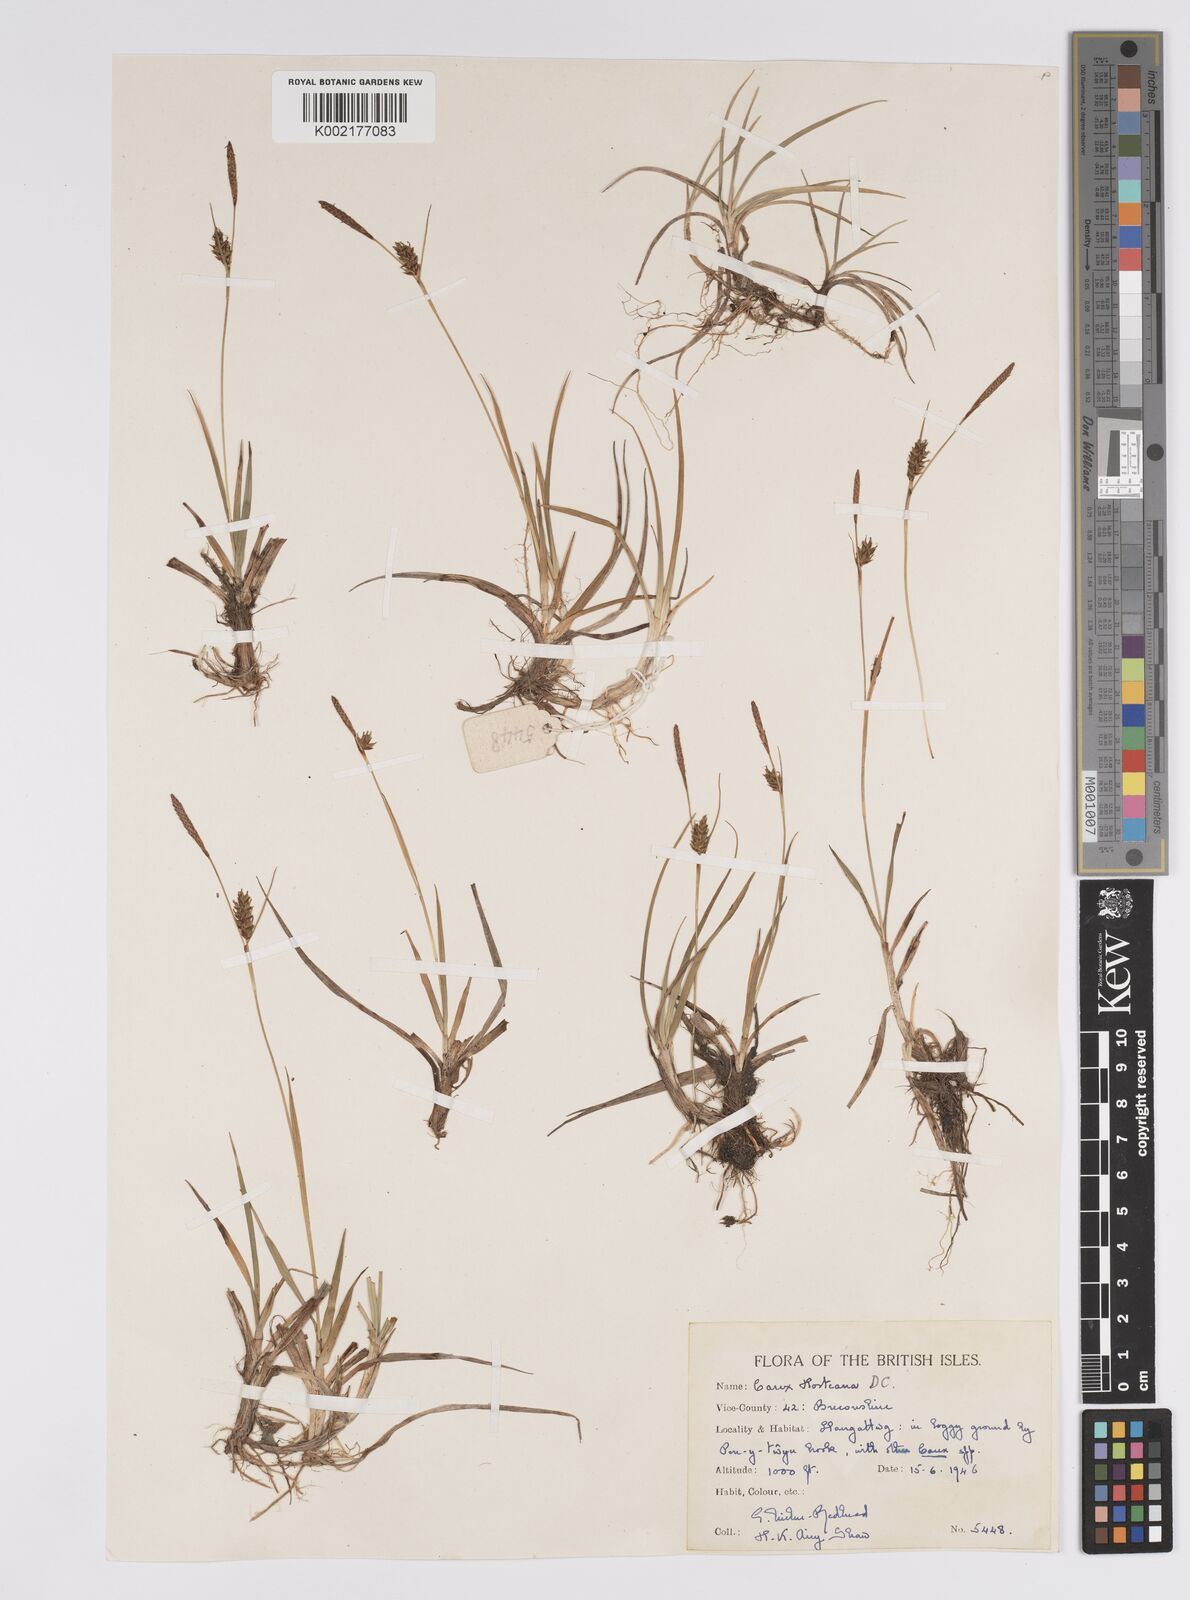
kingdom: Plantae
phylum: Tracheophyta
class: Liliopsida
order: Poales
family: Cyperaceae
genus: Carex
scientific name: Carex hostiana
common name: Tawny sedge
